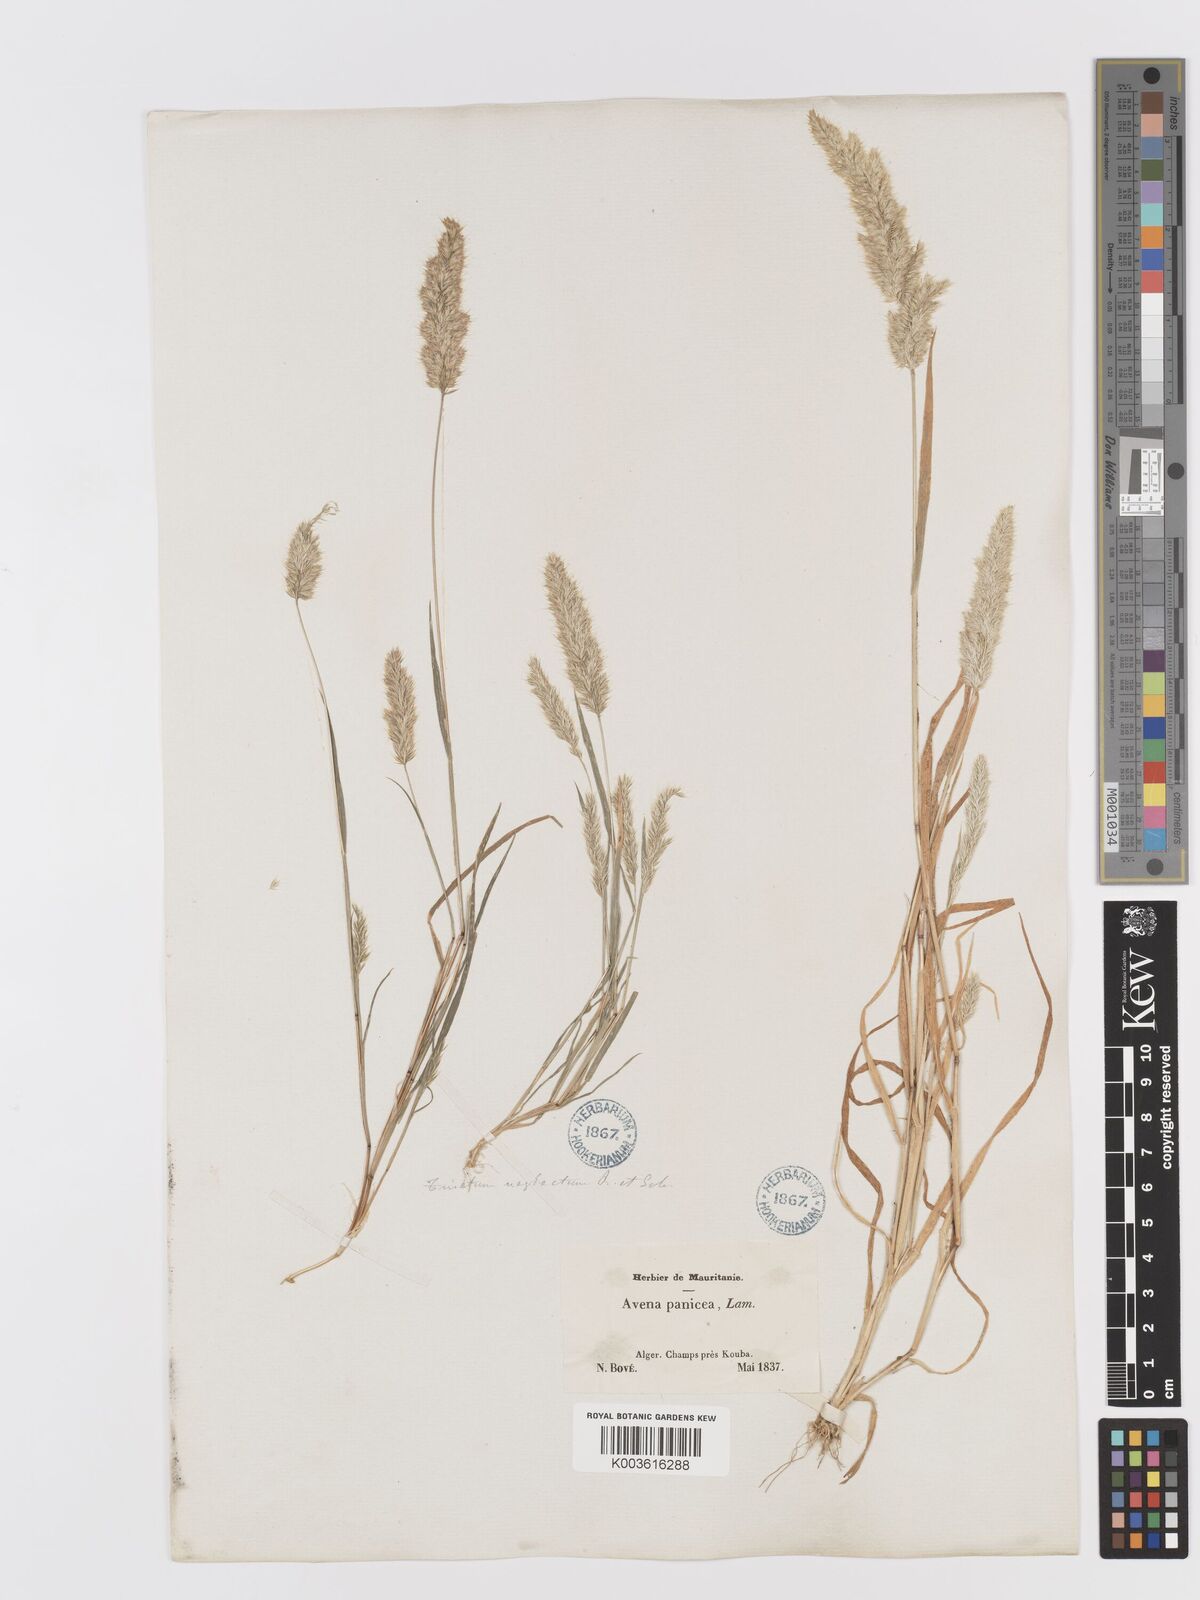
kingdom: Plantae
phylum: Tracheophyta
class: Liliopsida
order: Poales
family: Poaceae
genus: Trisetaria
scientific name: Trisetaria panicea
